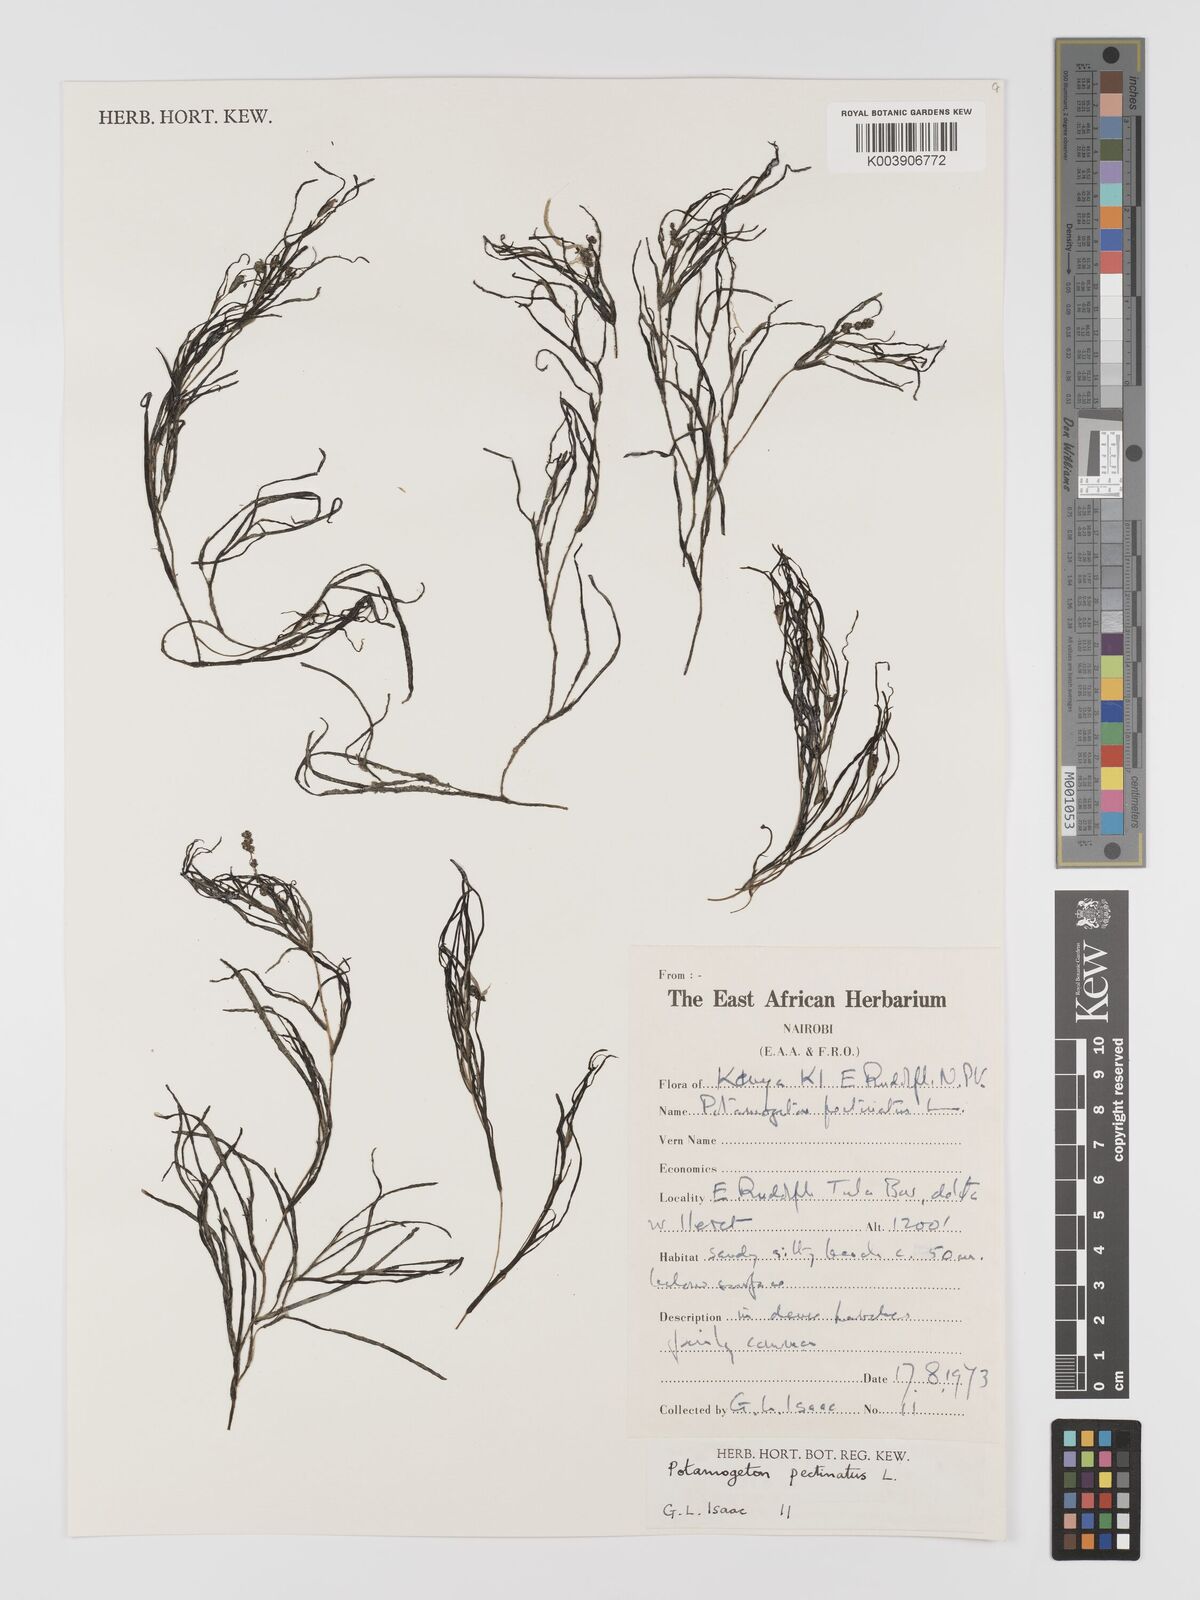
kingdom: Plantae
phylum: Tracheophyta
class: Liliopsida
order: Alismatales
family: Potamogetonaceae
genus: Stuckenia
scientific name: Stuckenia pectinata
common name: Sago pondweed
